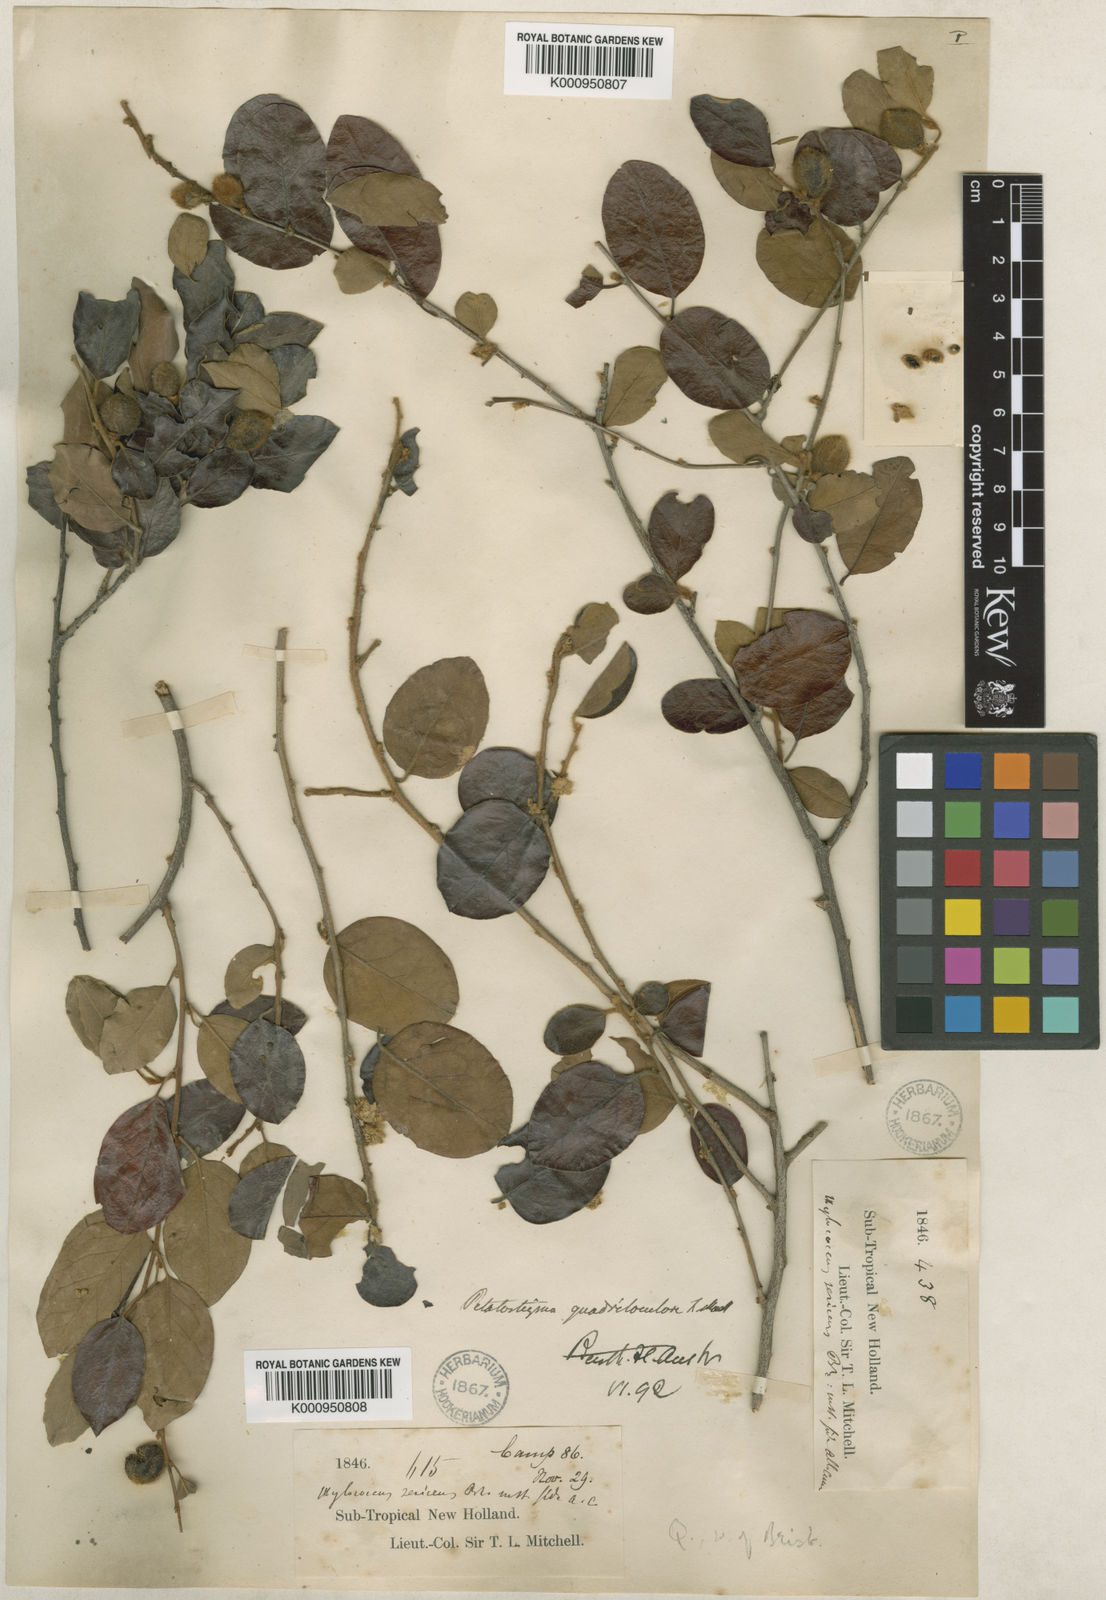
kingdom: Plantae
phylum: Tracheophyta
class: Magnoliopsida
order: Malpighiales
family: Picrodendraceae
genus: Petalostigma
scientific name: Petalostigma pubescens
